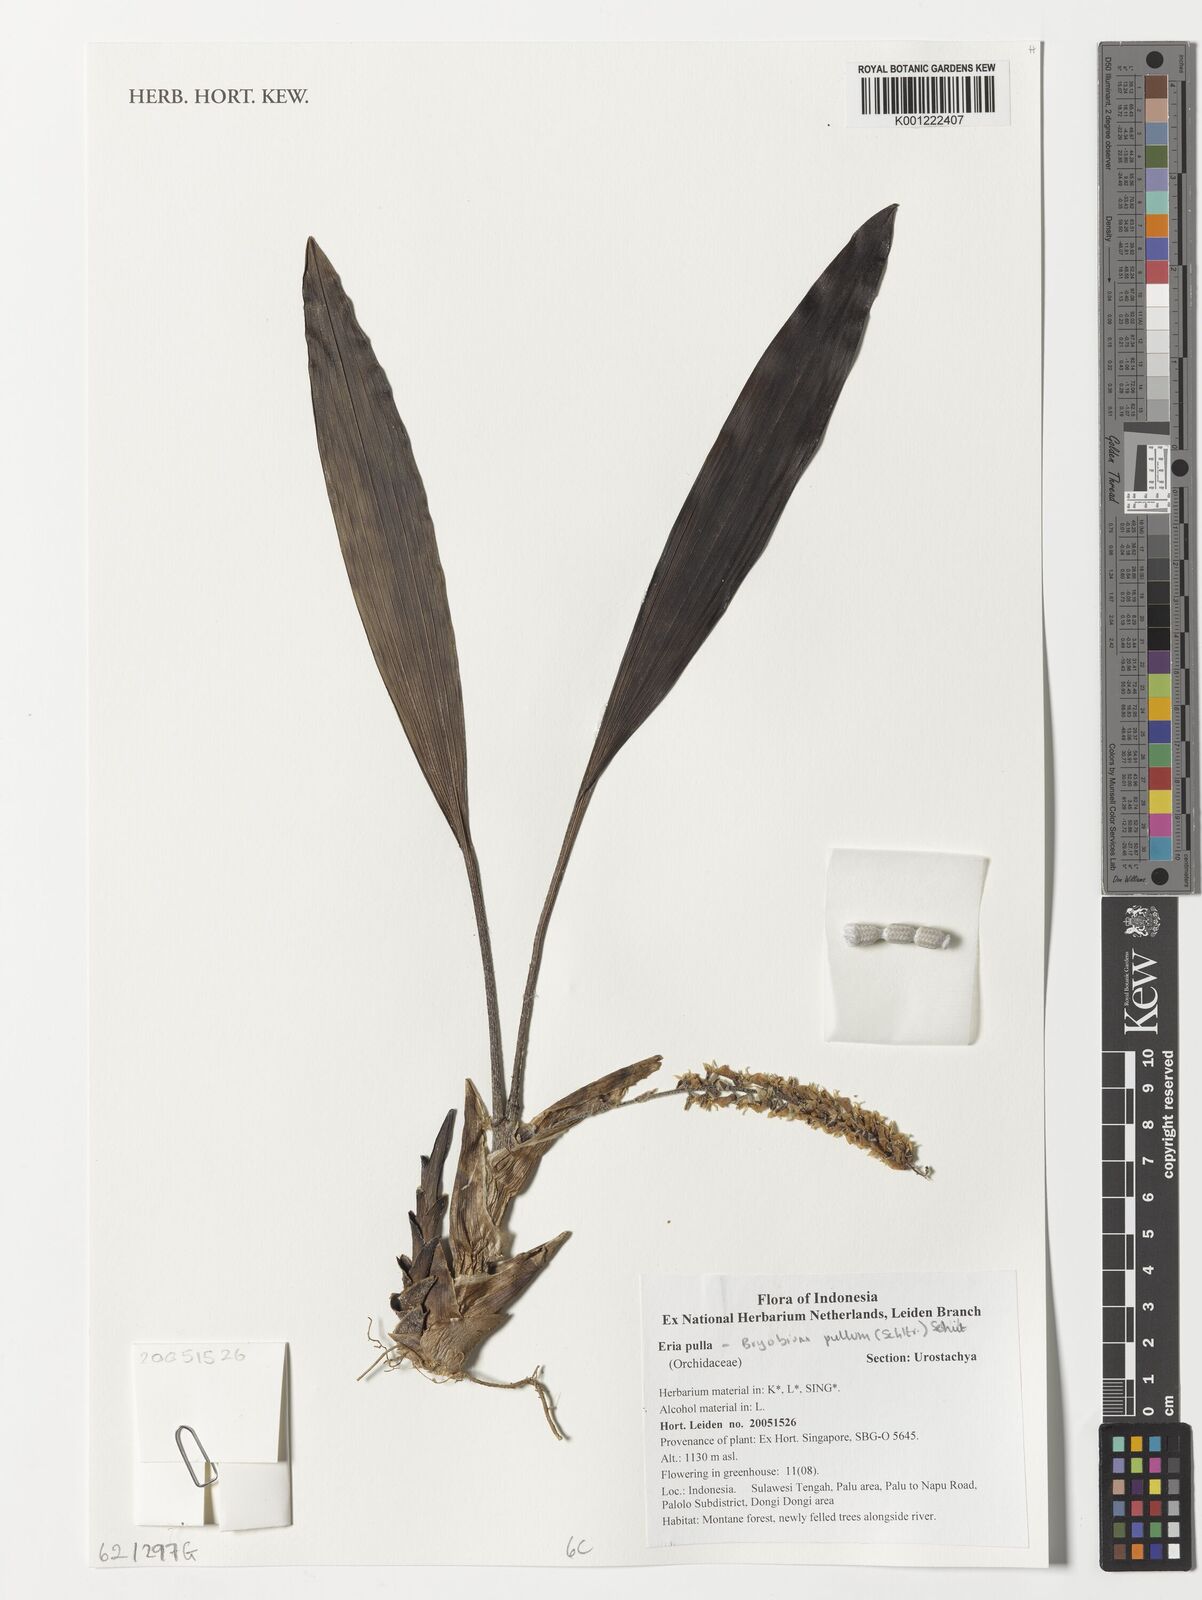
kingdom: Plantae
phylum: Tracheophyta
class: Liliopsida
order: Asparagales
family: Orchidaceae
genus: Bryobium
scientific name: Bryobium pullum
